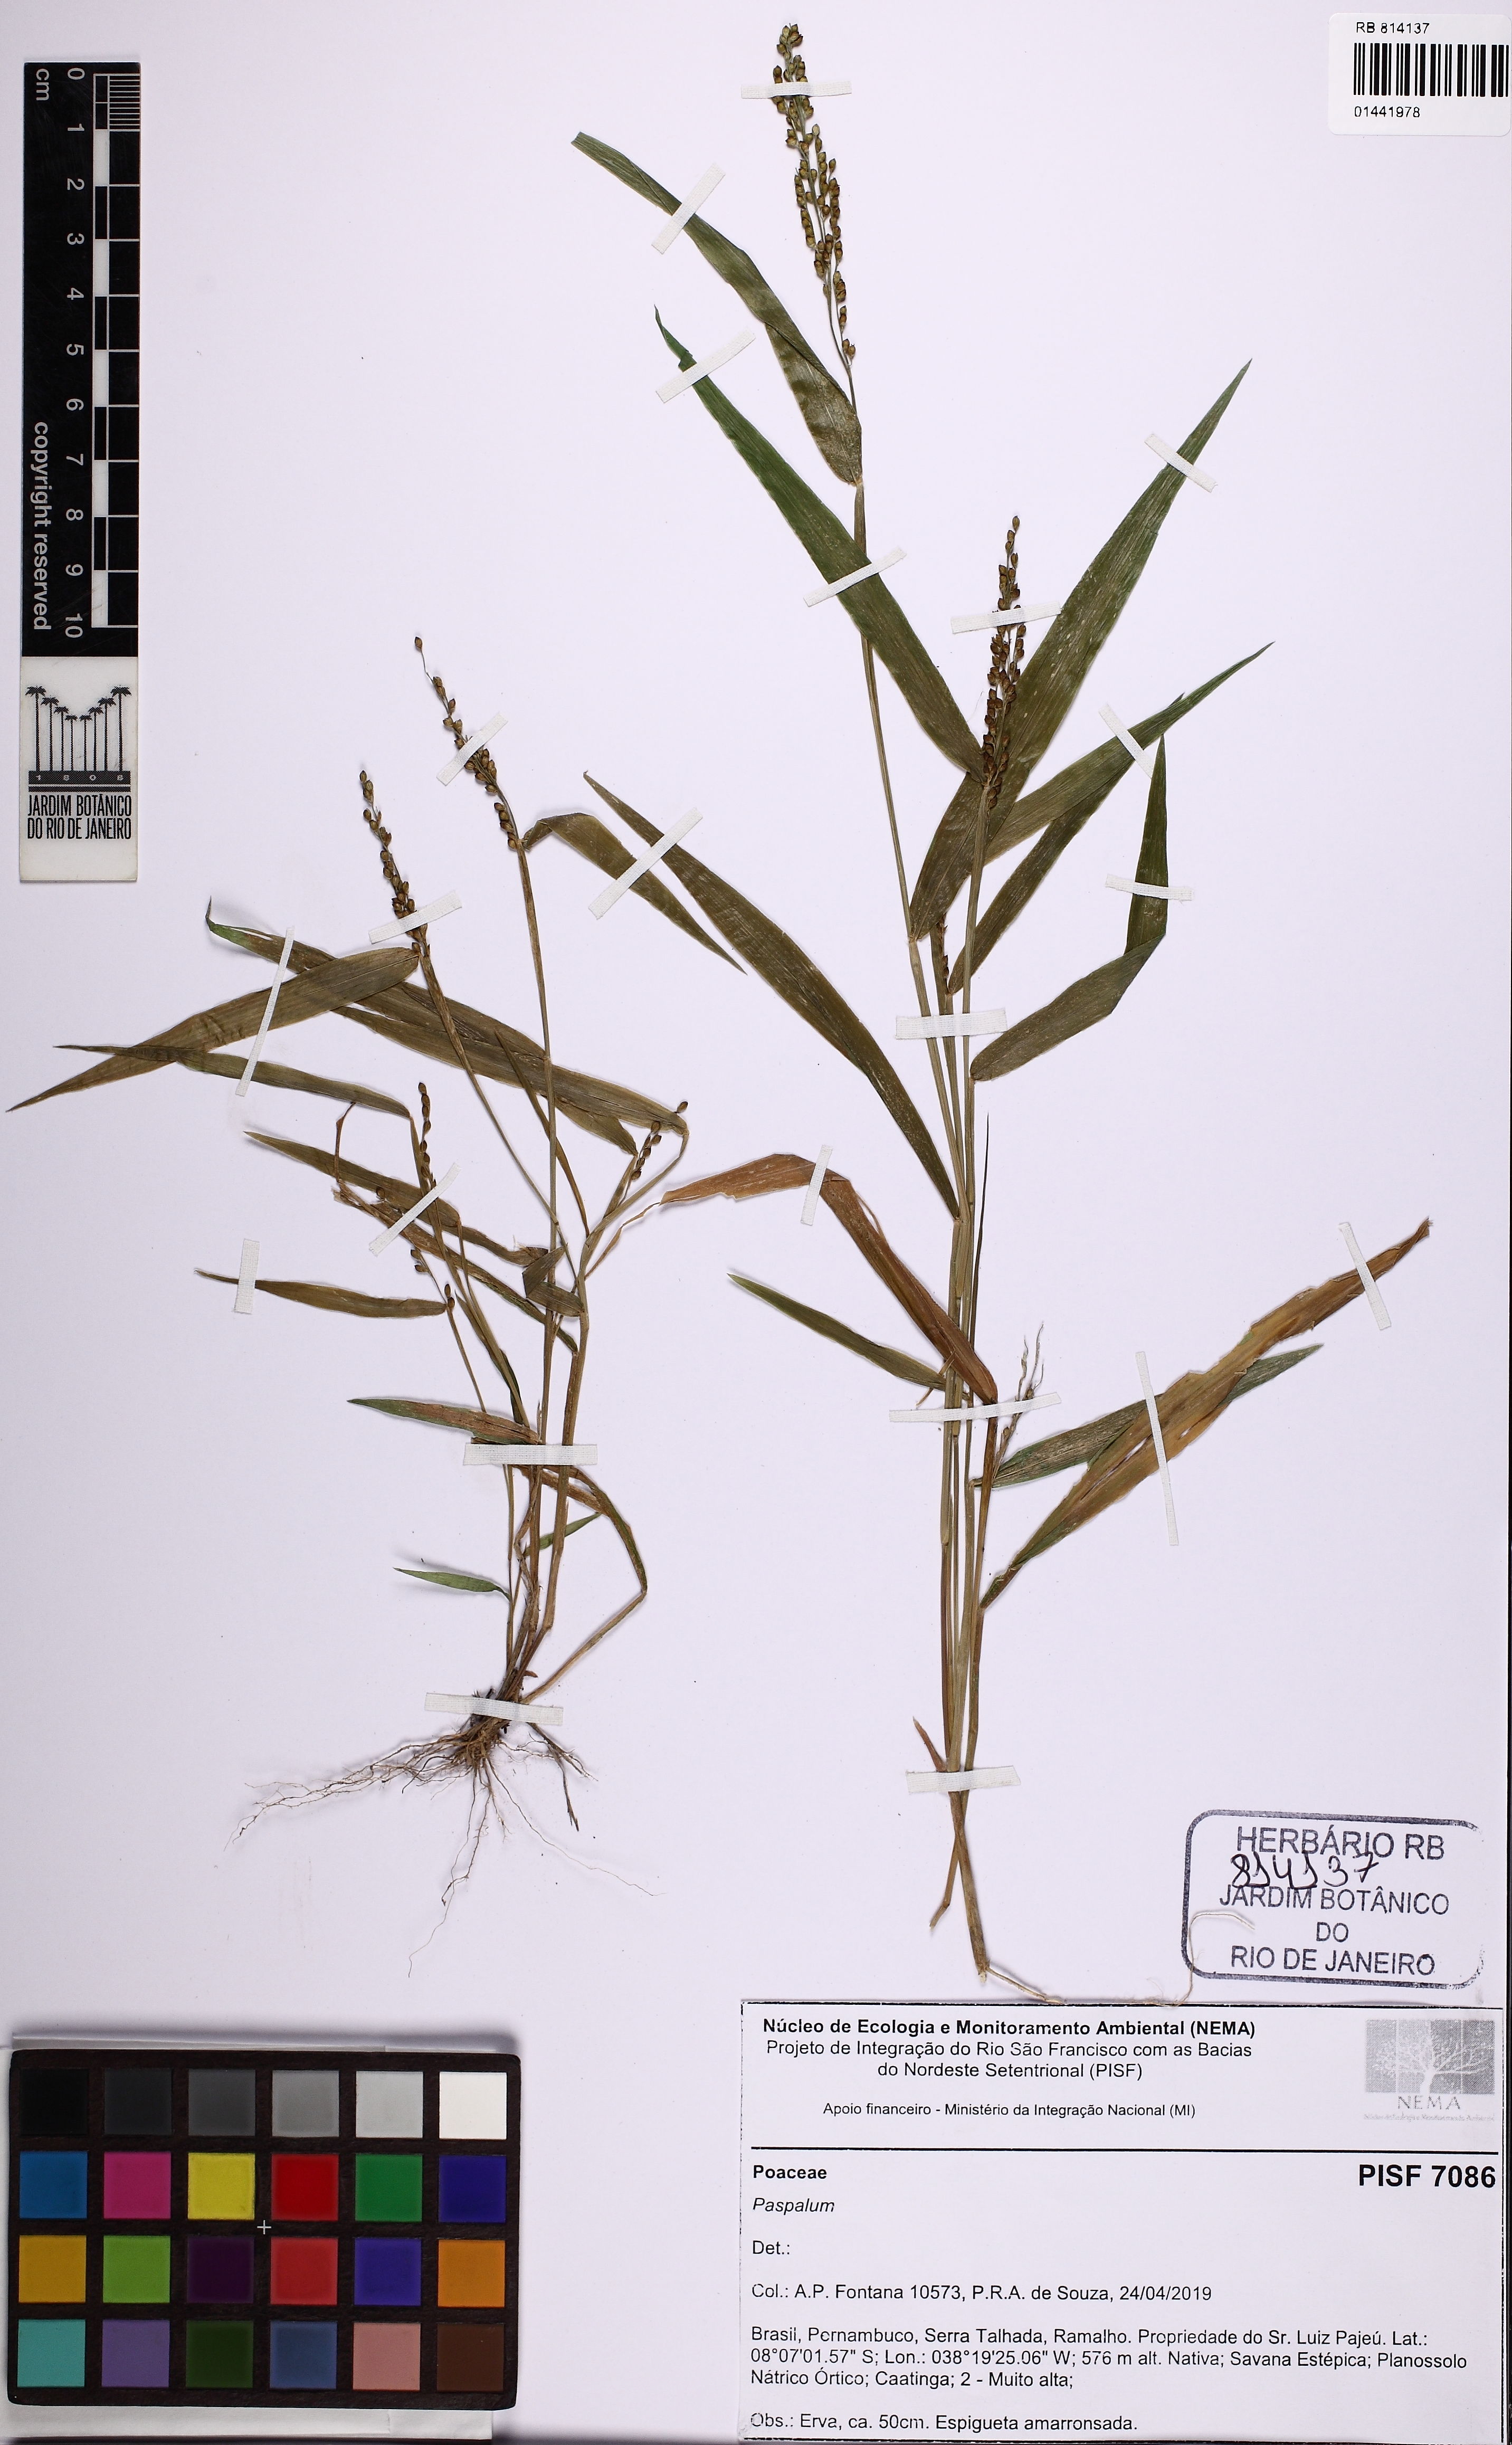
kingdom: Plantae
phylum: Tracheophyta
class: Liliopsida
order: Poales
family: Poaceae
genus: Urochloa
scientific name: Urochloa
